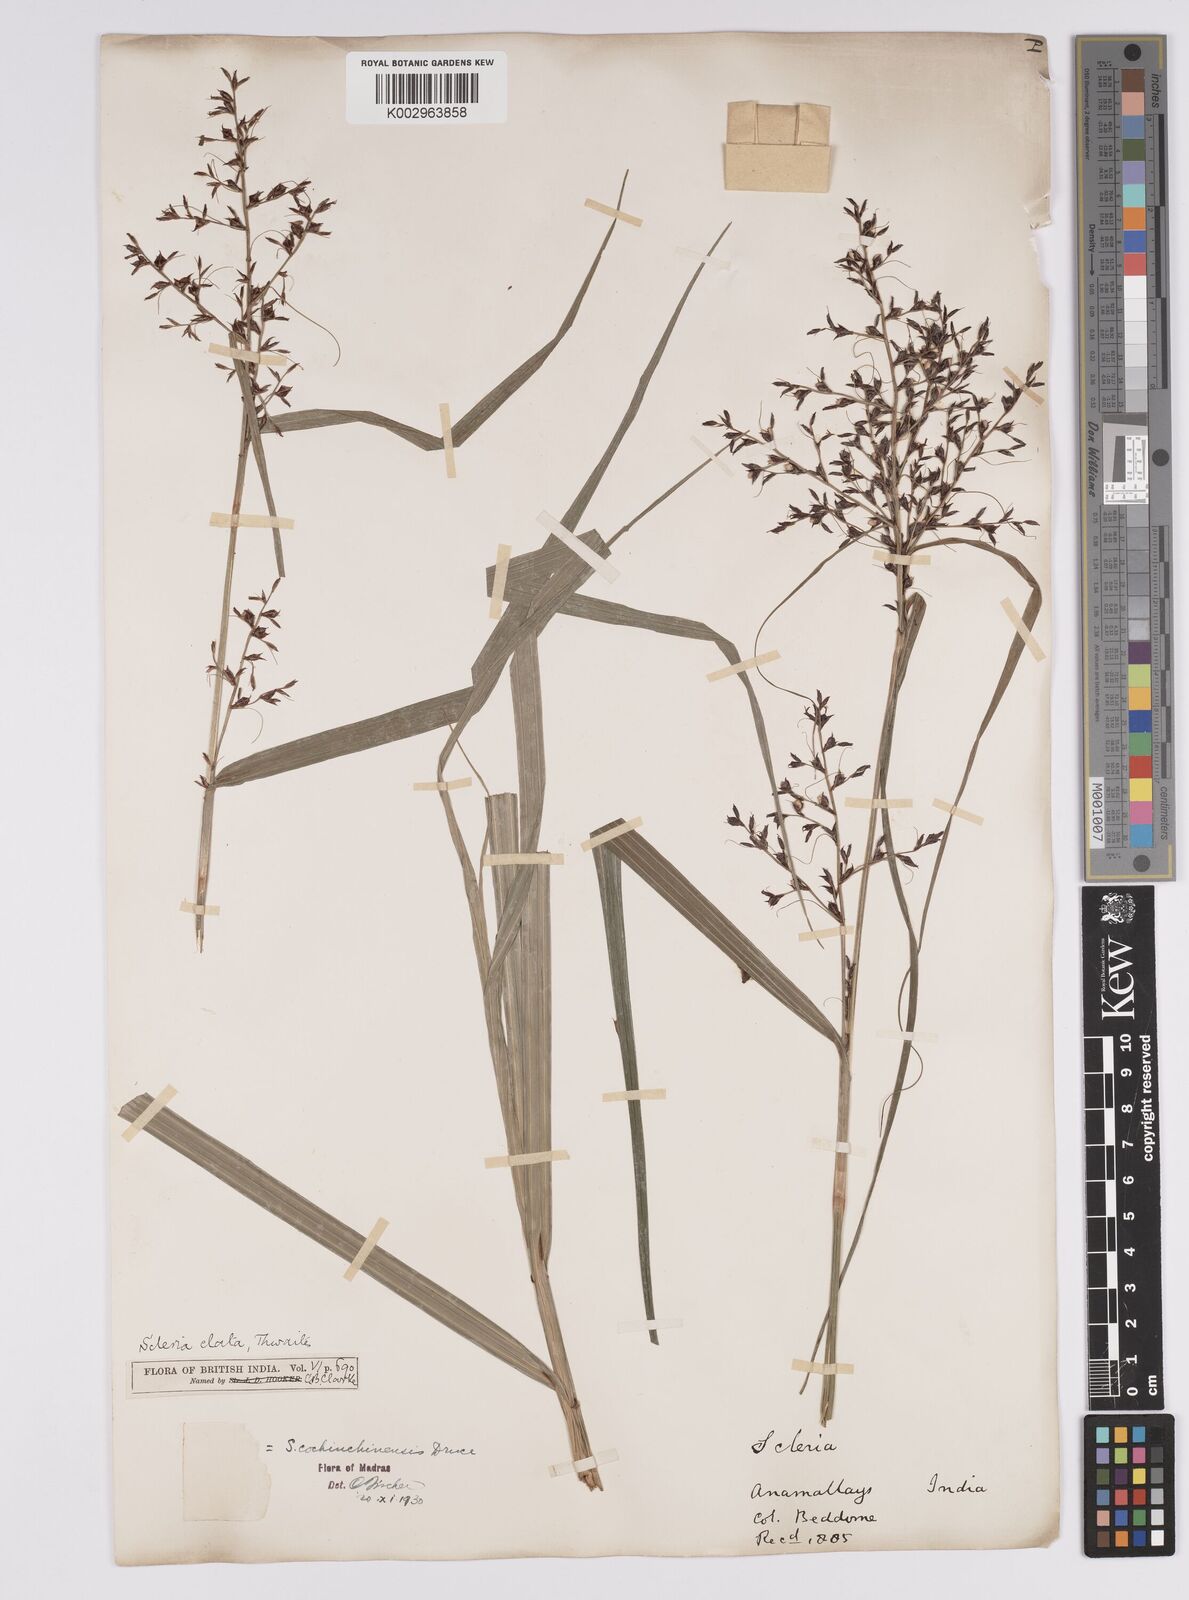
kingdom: Plantae
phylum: Tracheophyta
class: Liliopsida
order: Poales
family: Cyperaceae
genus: Scleria
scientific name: Scleria terrestris
